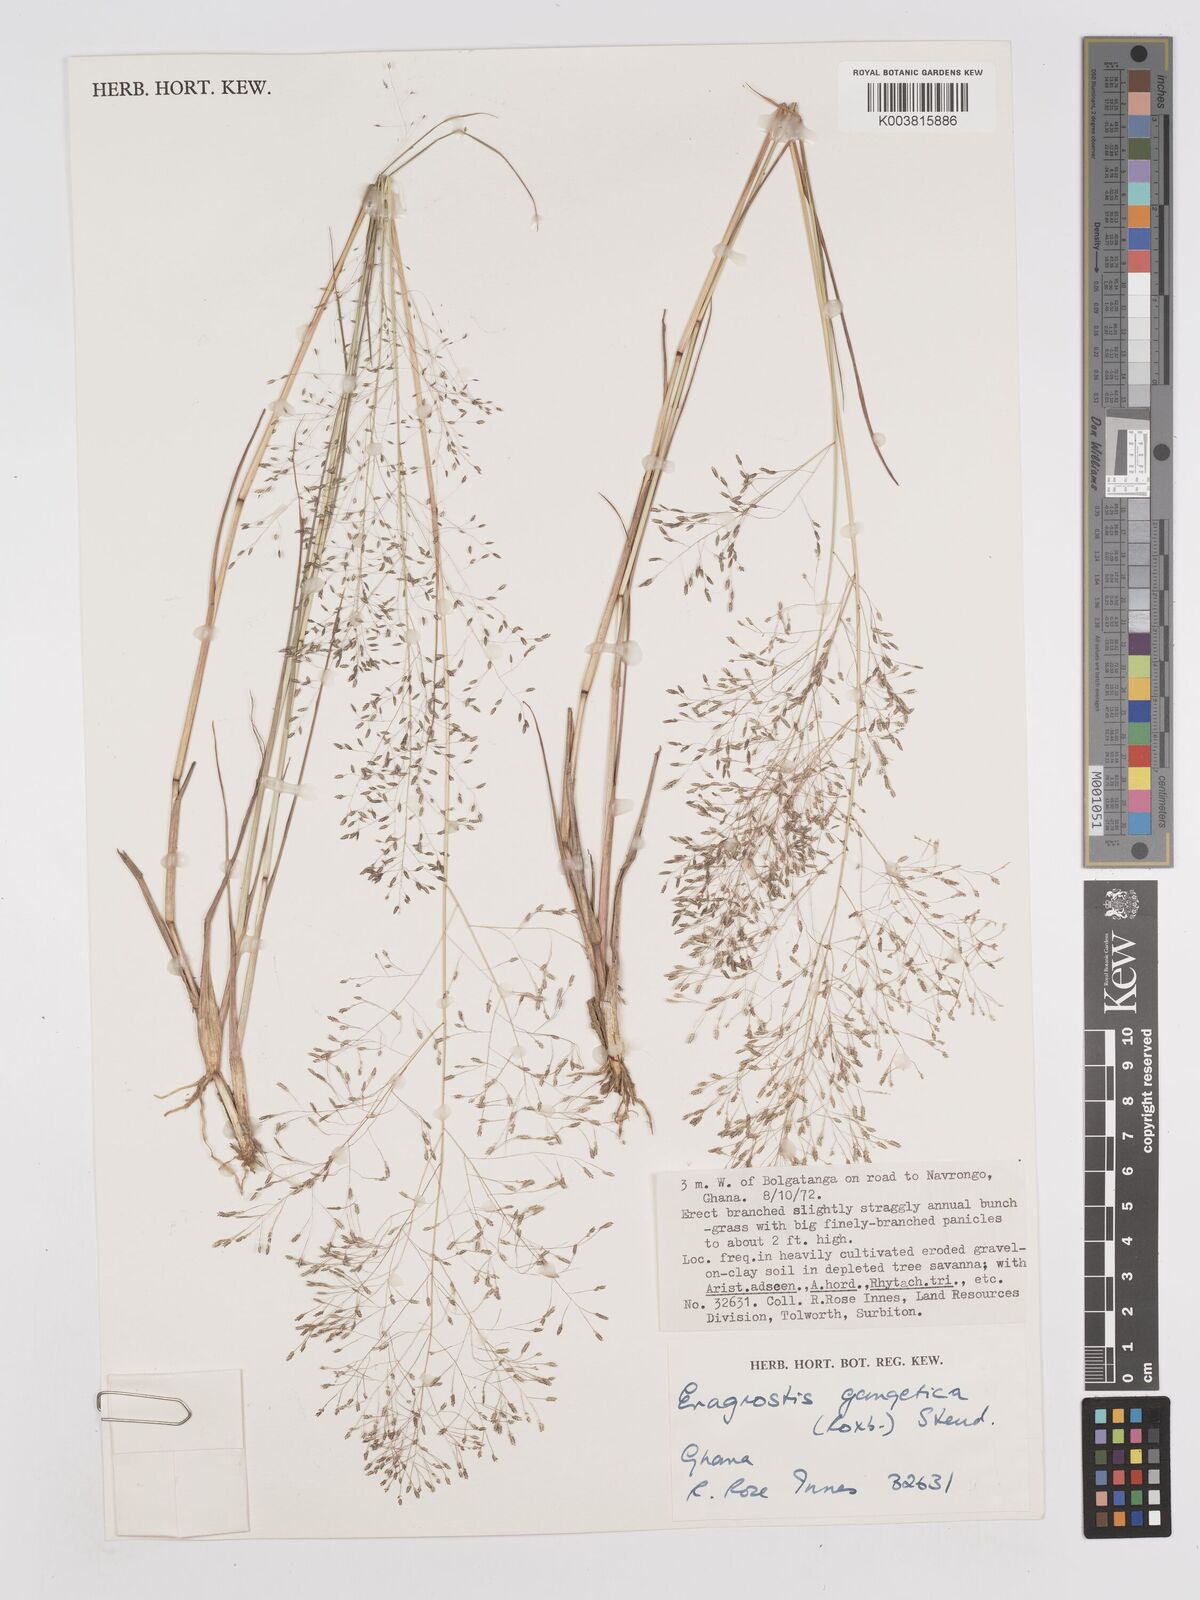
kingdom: Plantae
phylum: Tracheophyta
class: Liliopsida
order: Poales
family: Poaceae
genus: Eragrostis
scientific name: Eragrostis gangetica
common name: Slimflower lovegrass
